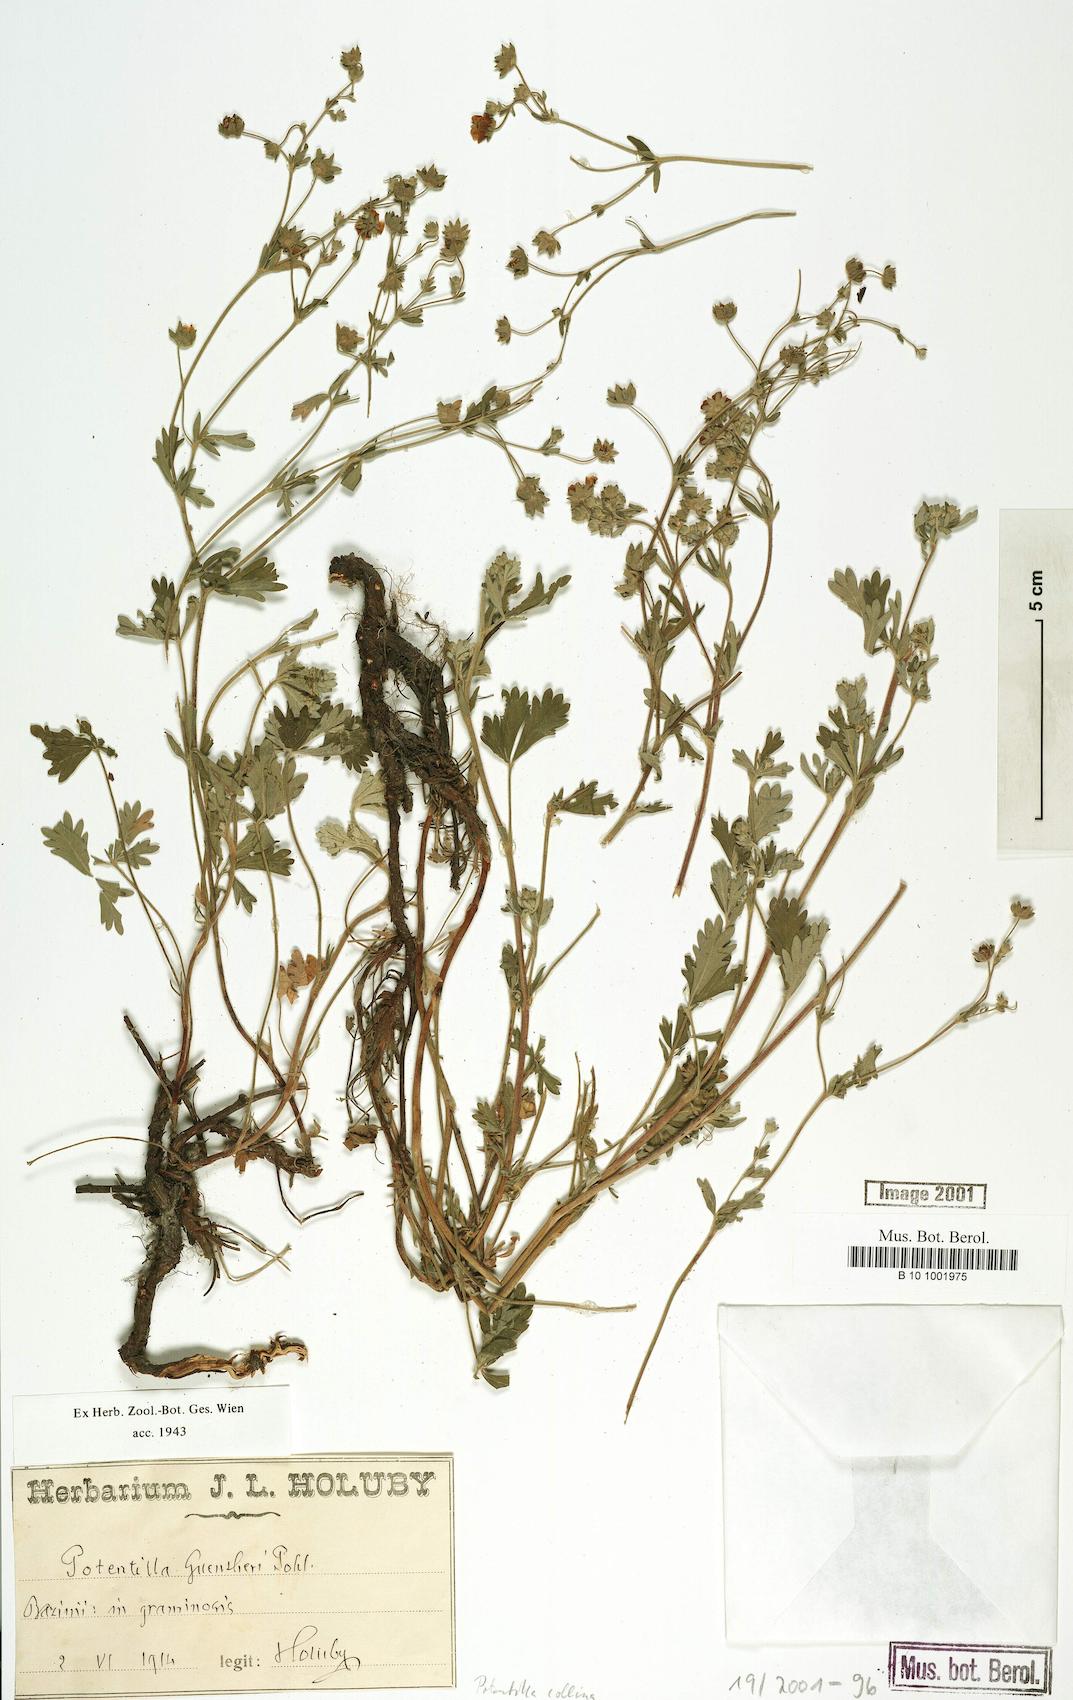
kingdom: Plantae
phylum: Tracheophyta
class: Magnoliopsida
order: Rosales
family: Rosaceae
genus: Potentilla
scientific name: Potentilla collina
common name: Palmleaf cinquefoil
